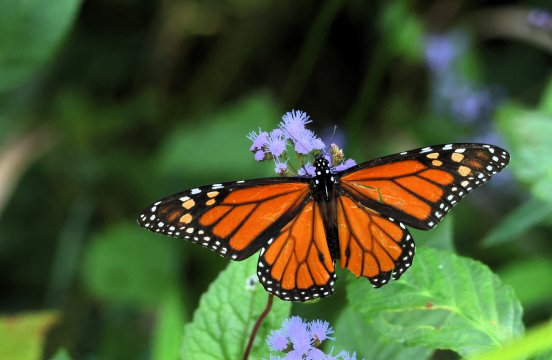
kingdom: Animalia
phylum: Arthropoda
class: Insecta
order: Lepidoptera
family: Nymphalidae
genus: Danaus
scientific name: Danaus plexippus
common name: Monarch
